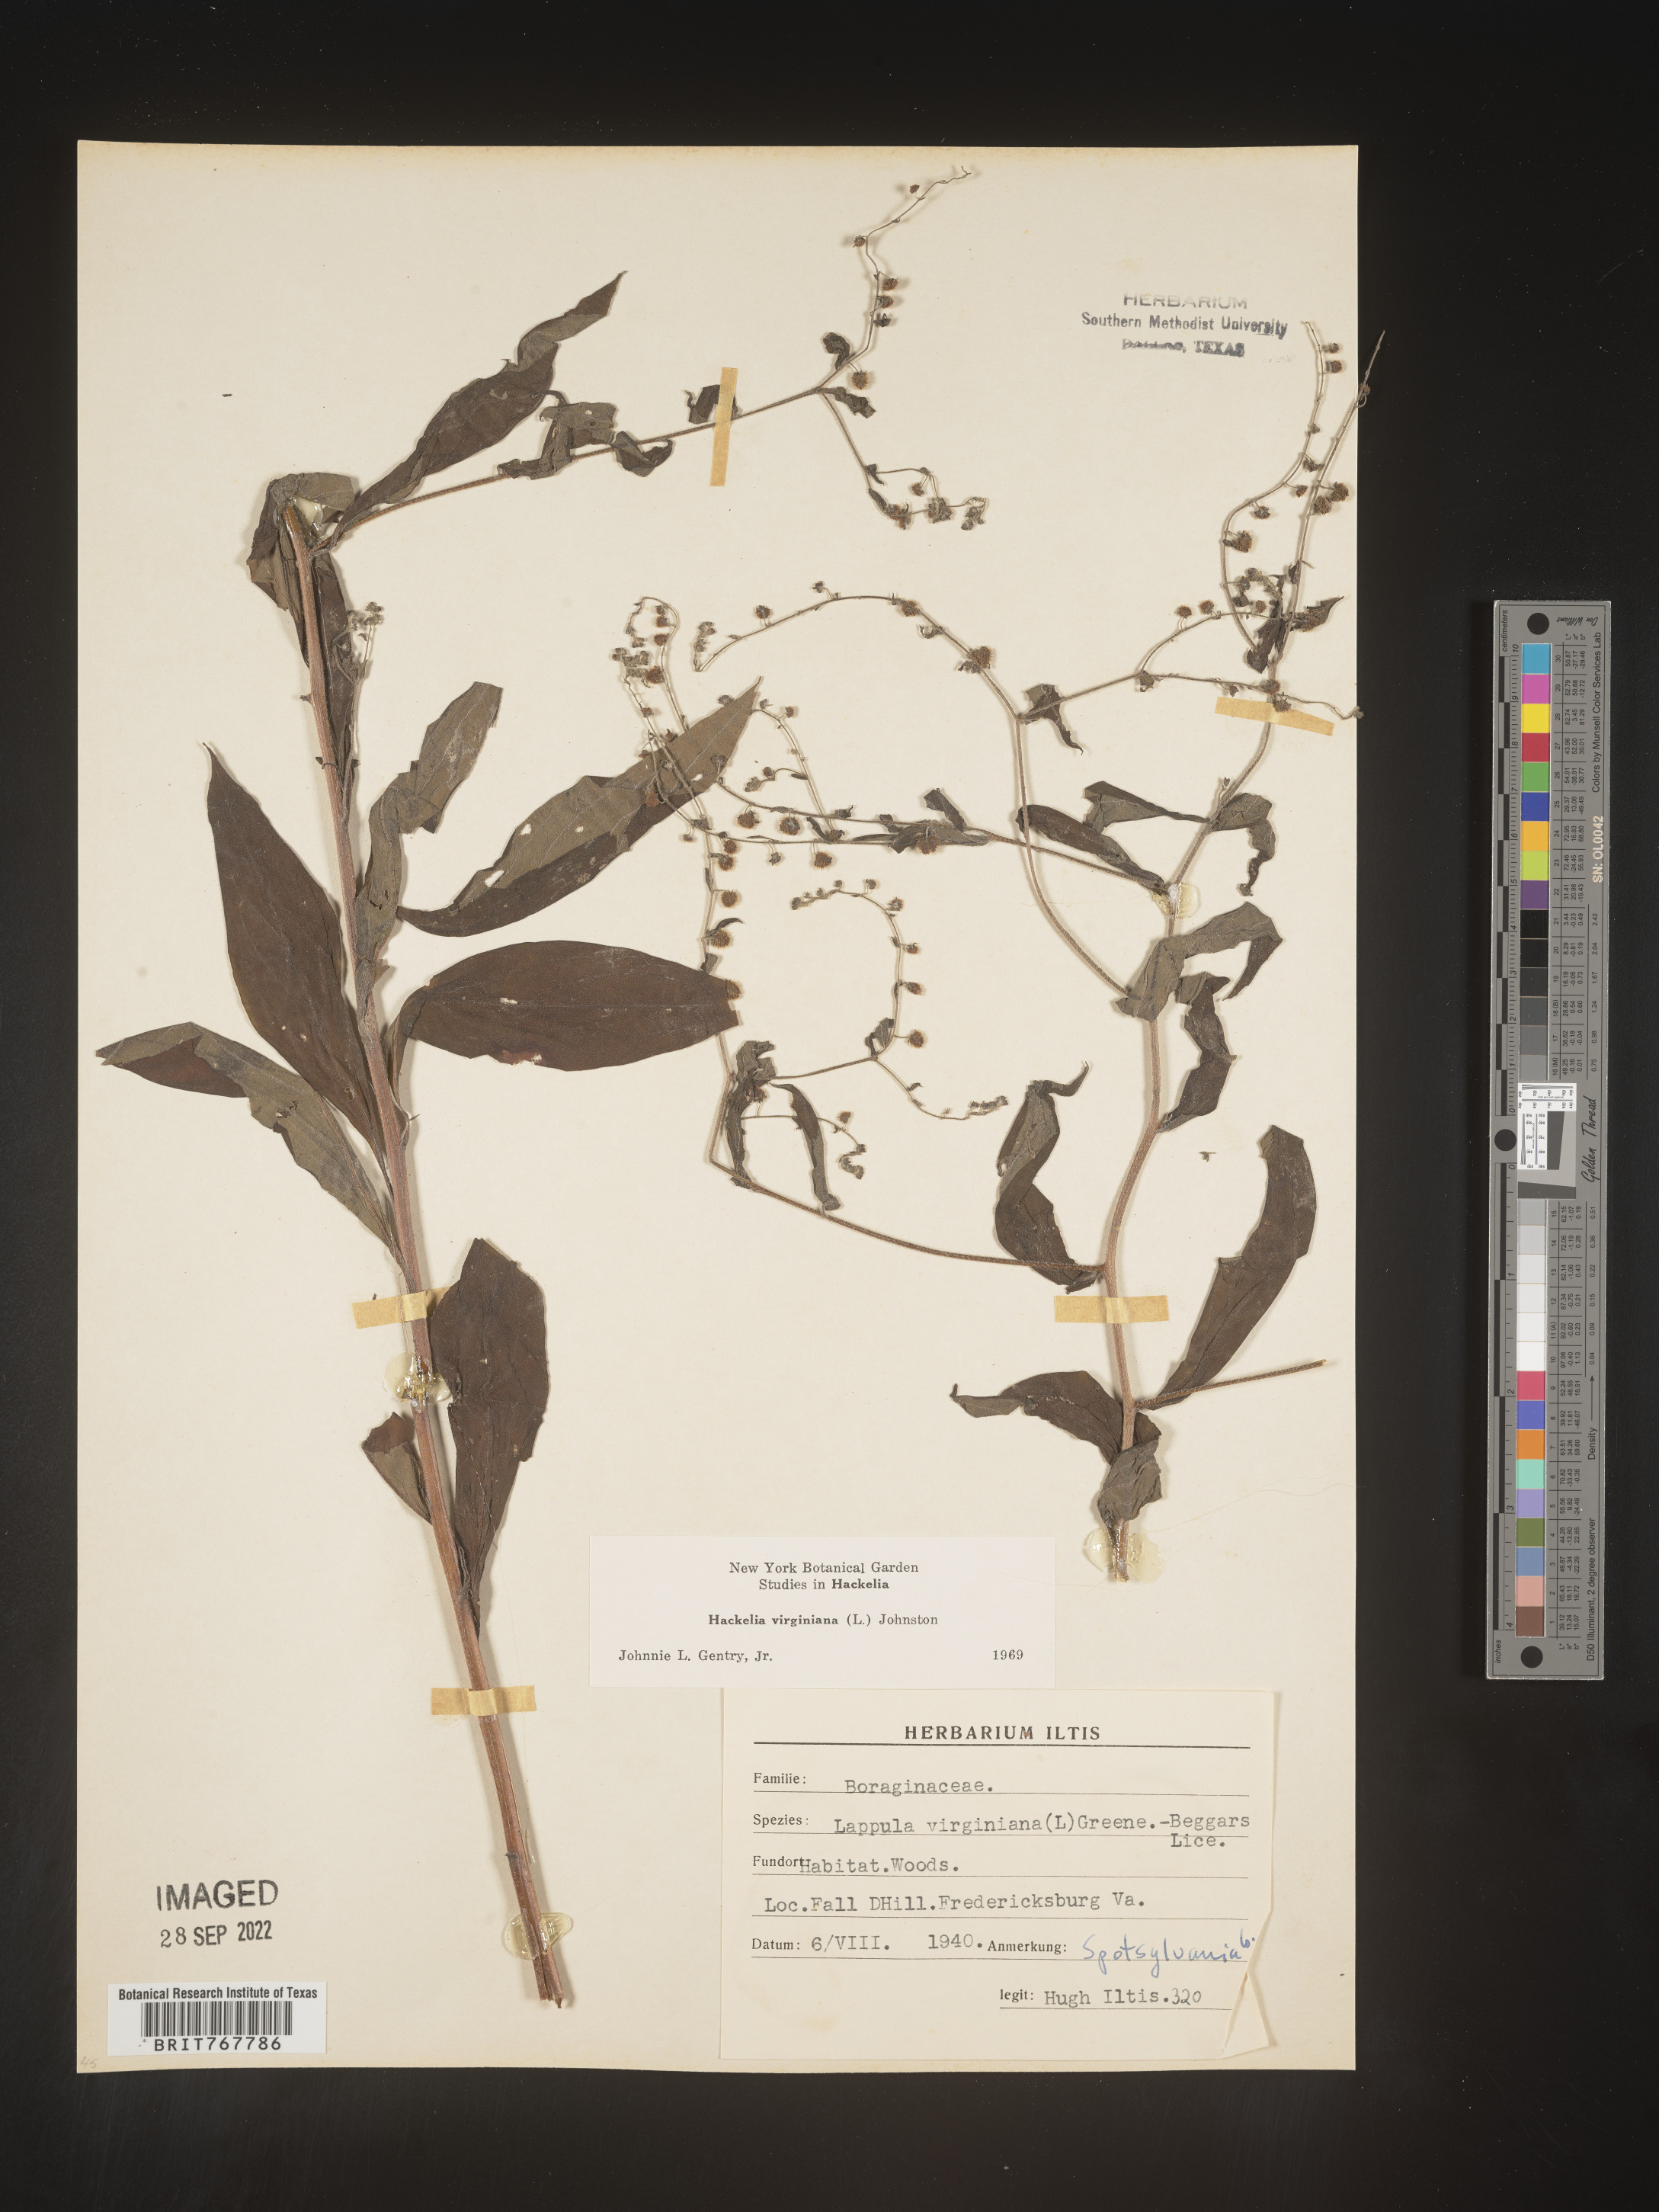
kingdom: Plantae
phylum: Tracheophyta
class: Magnoliopsida
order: Boraginales
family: Boraginaceae
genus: Hackelia
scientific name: Hackelia virginiana
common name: Beggar's-lice
